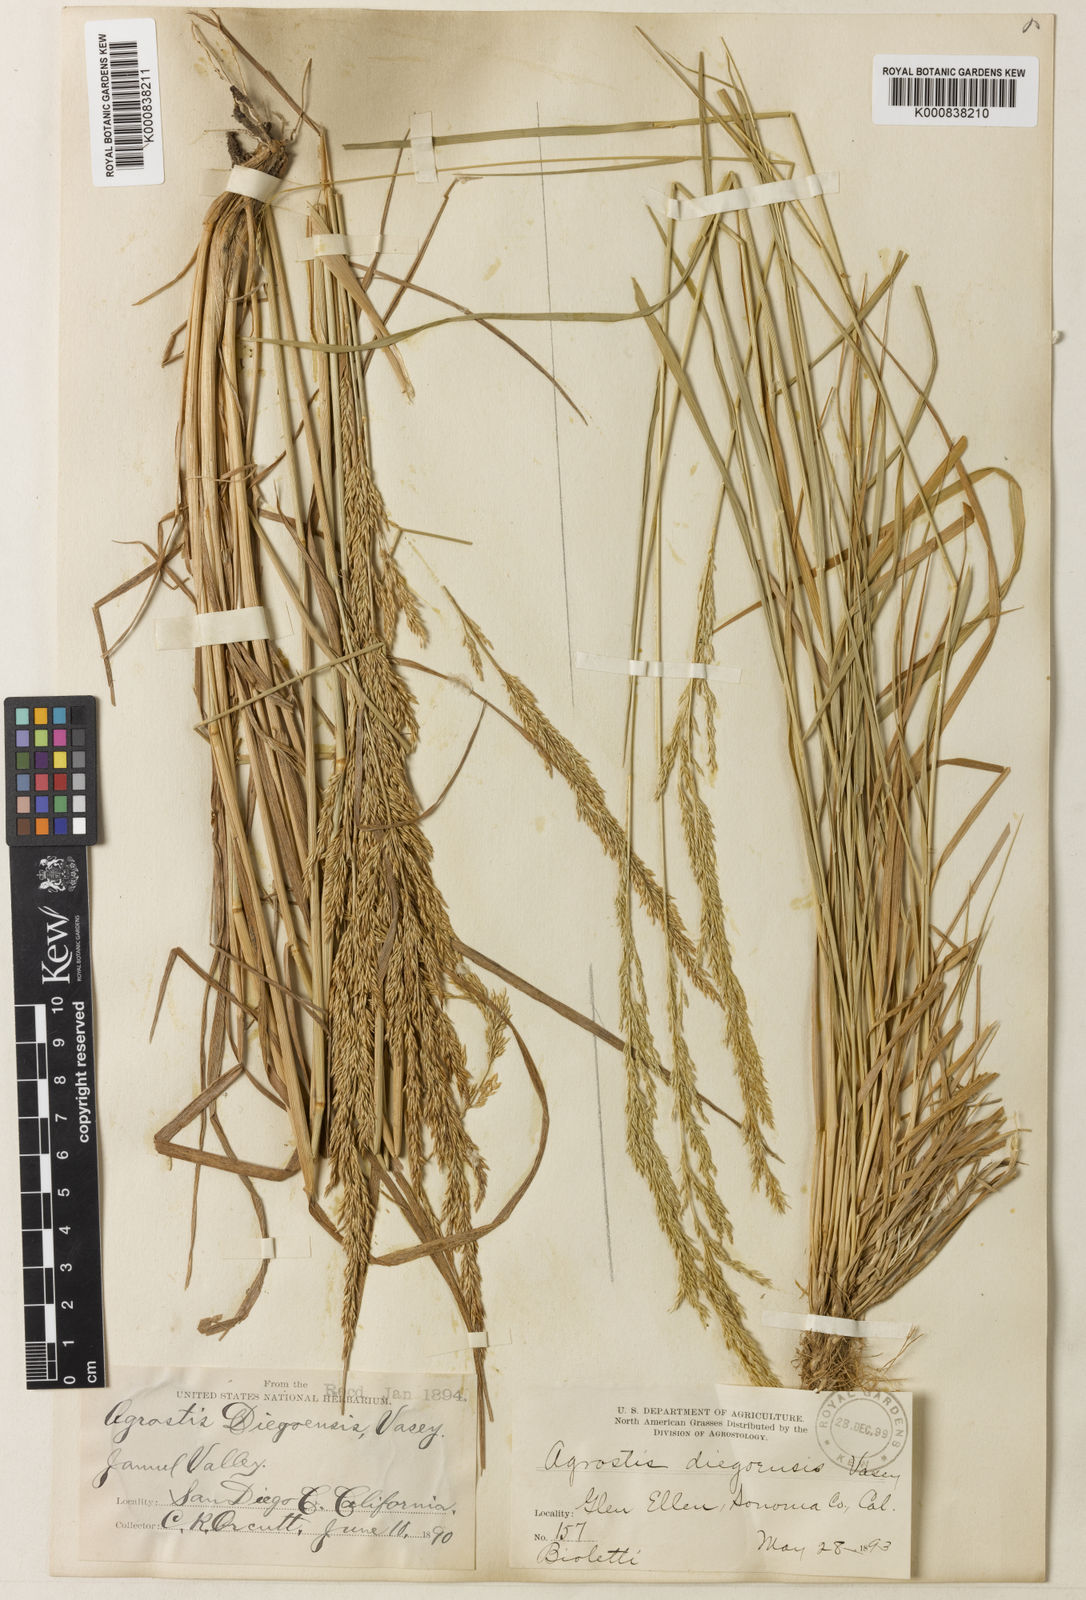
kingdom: Plantae
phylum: Tracheophyta
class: Liliopsida
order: Poales
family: Poaceae
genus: Agrostis
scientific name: Agrostis pallens
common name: Dune bent
